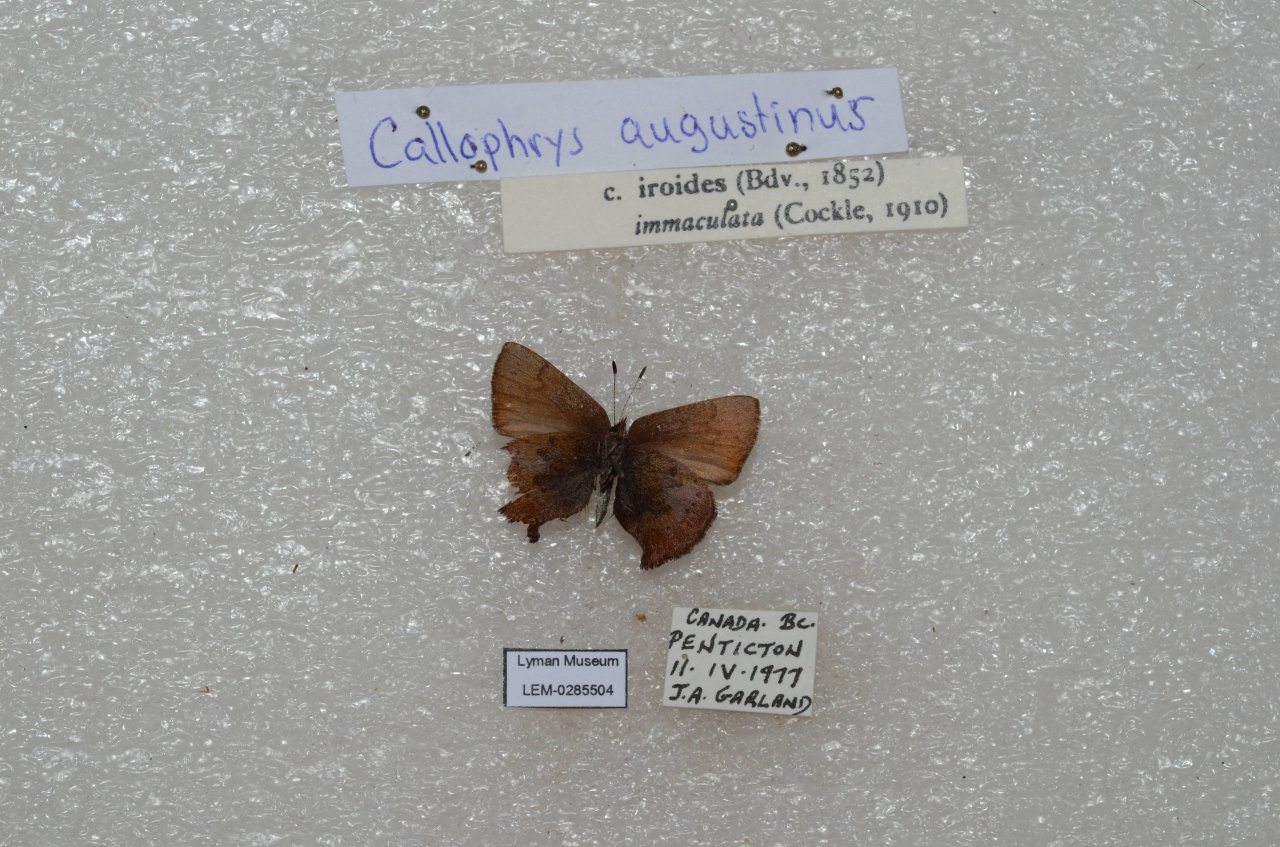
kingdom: Animalia
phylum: Arthropoda
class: Insecta
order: Lepidoptera
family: Lycaenidae
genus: Incisalia
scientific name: Incisalia irioides
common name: Brown Elfin
